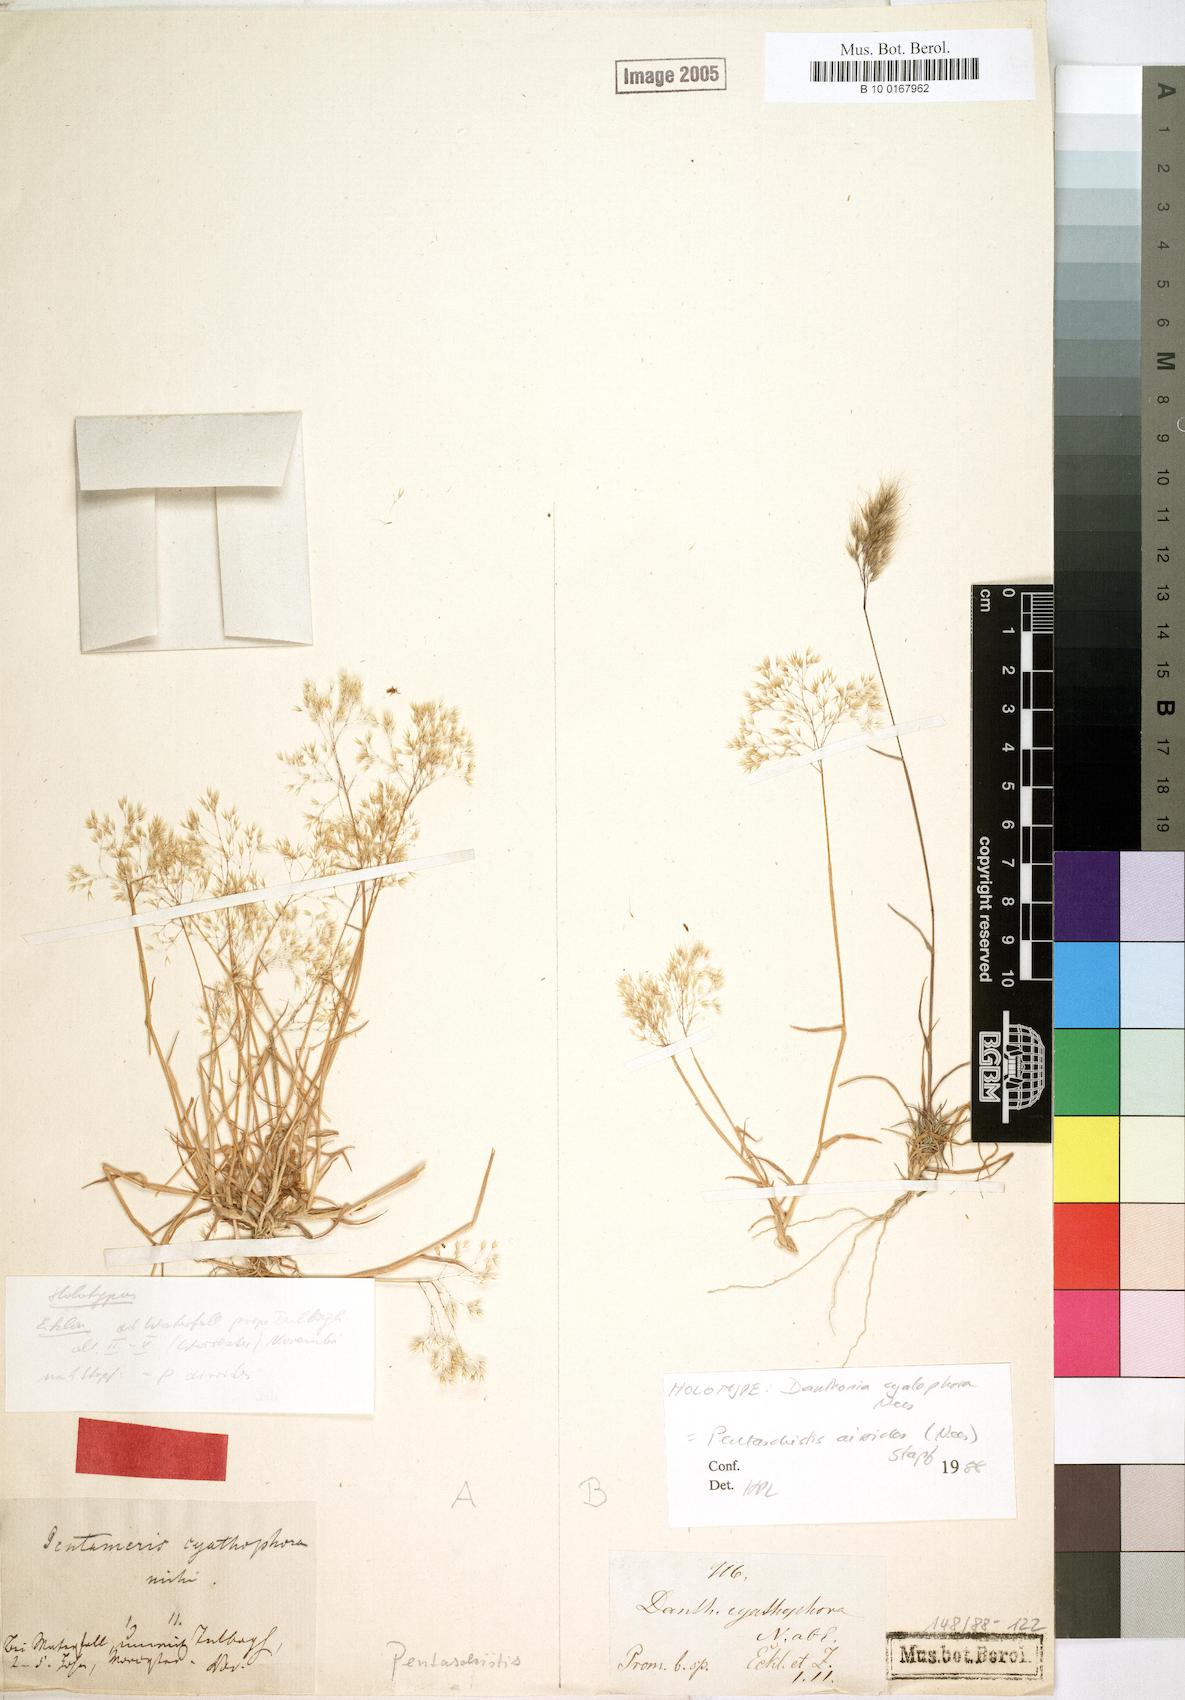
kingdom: Plantae
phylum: Tracheophyta
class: Liliopsida
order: Poales
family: Poaceae
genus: Pentameris
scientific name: Pentameris airoides
